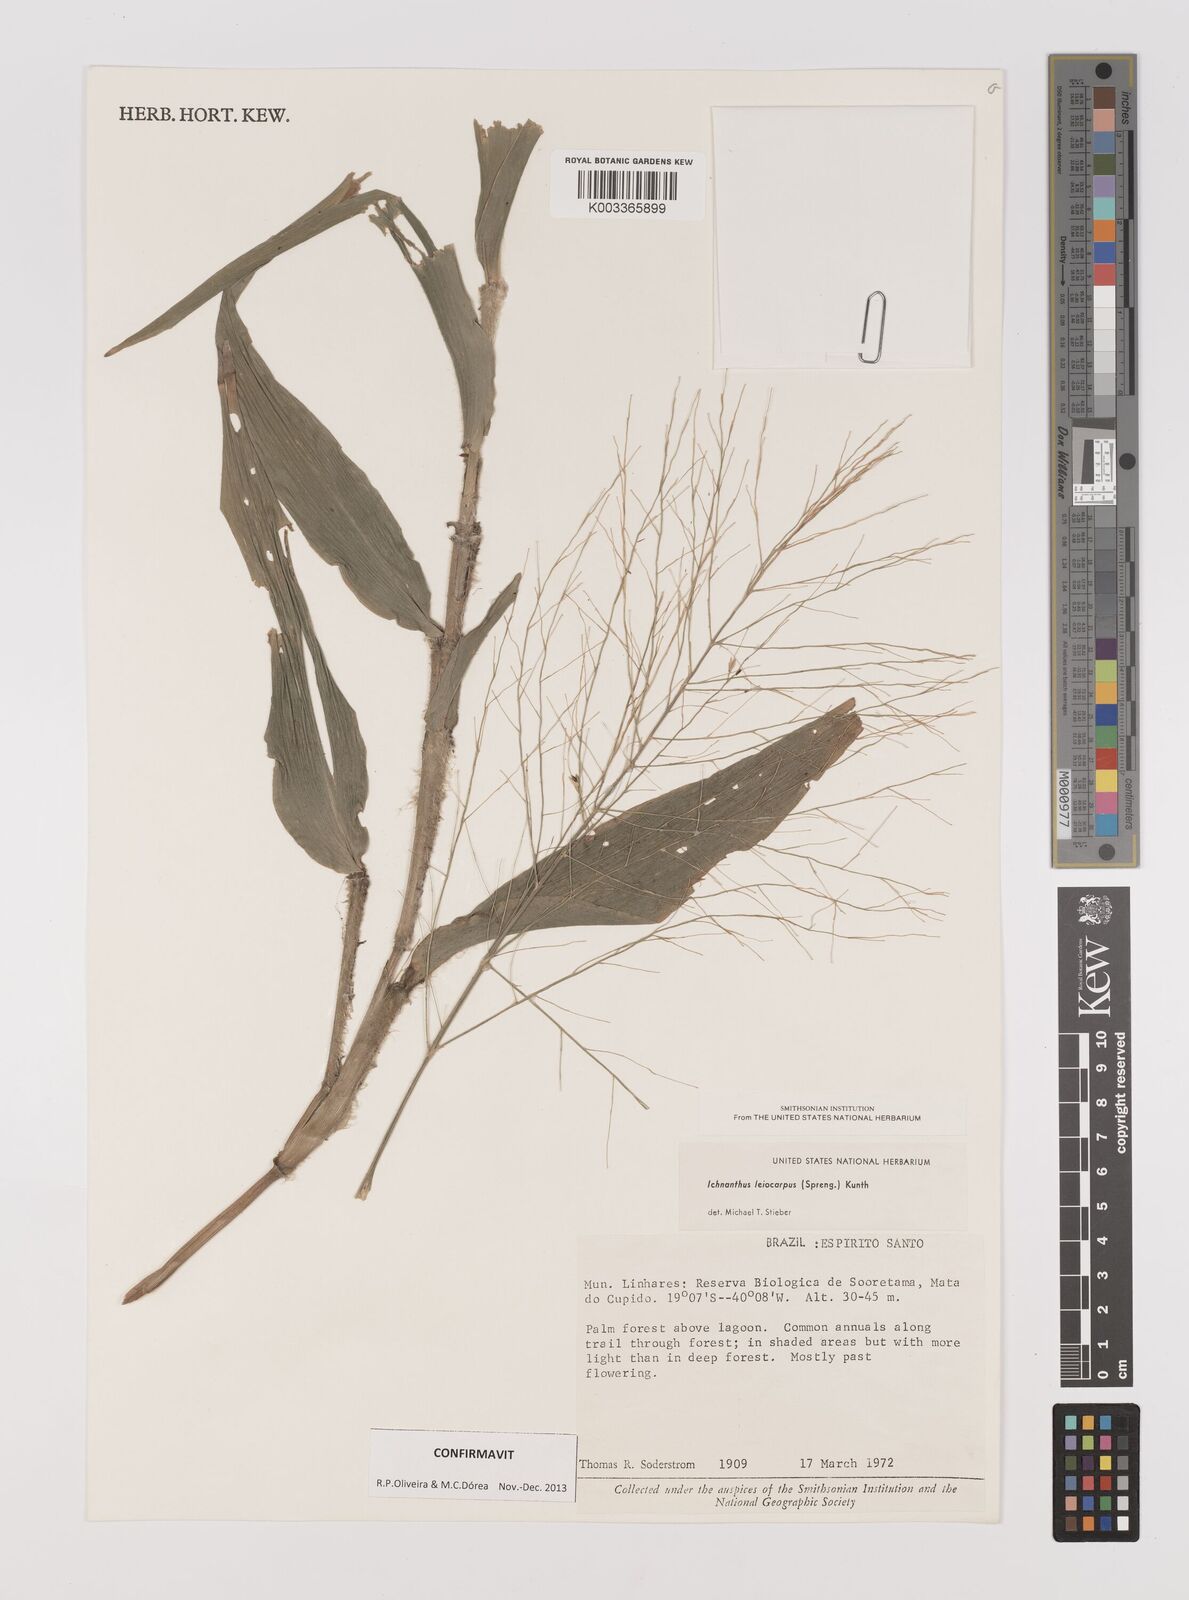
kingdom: Plantae
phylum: Tracheophyta
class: Liliopsida
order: Poales
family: Poaceae
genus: Ichnanthus
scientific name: Ichnanthus leiocarpus
